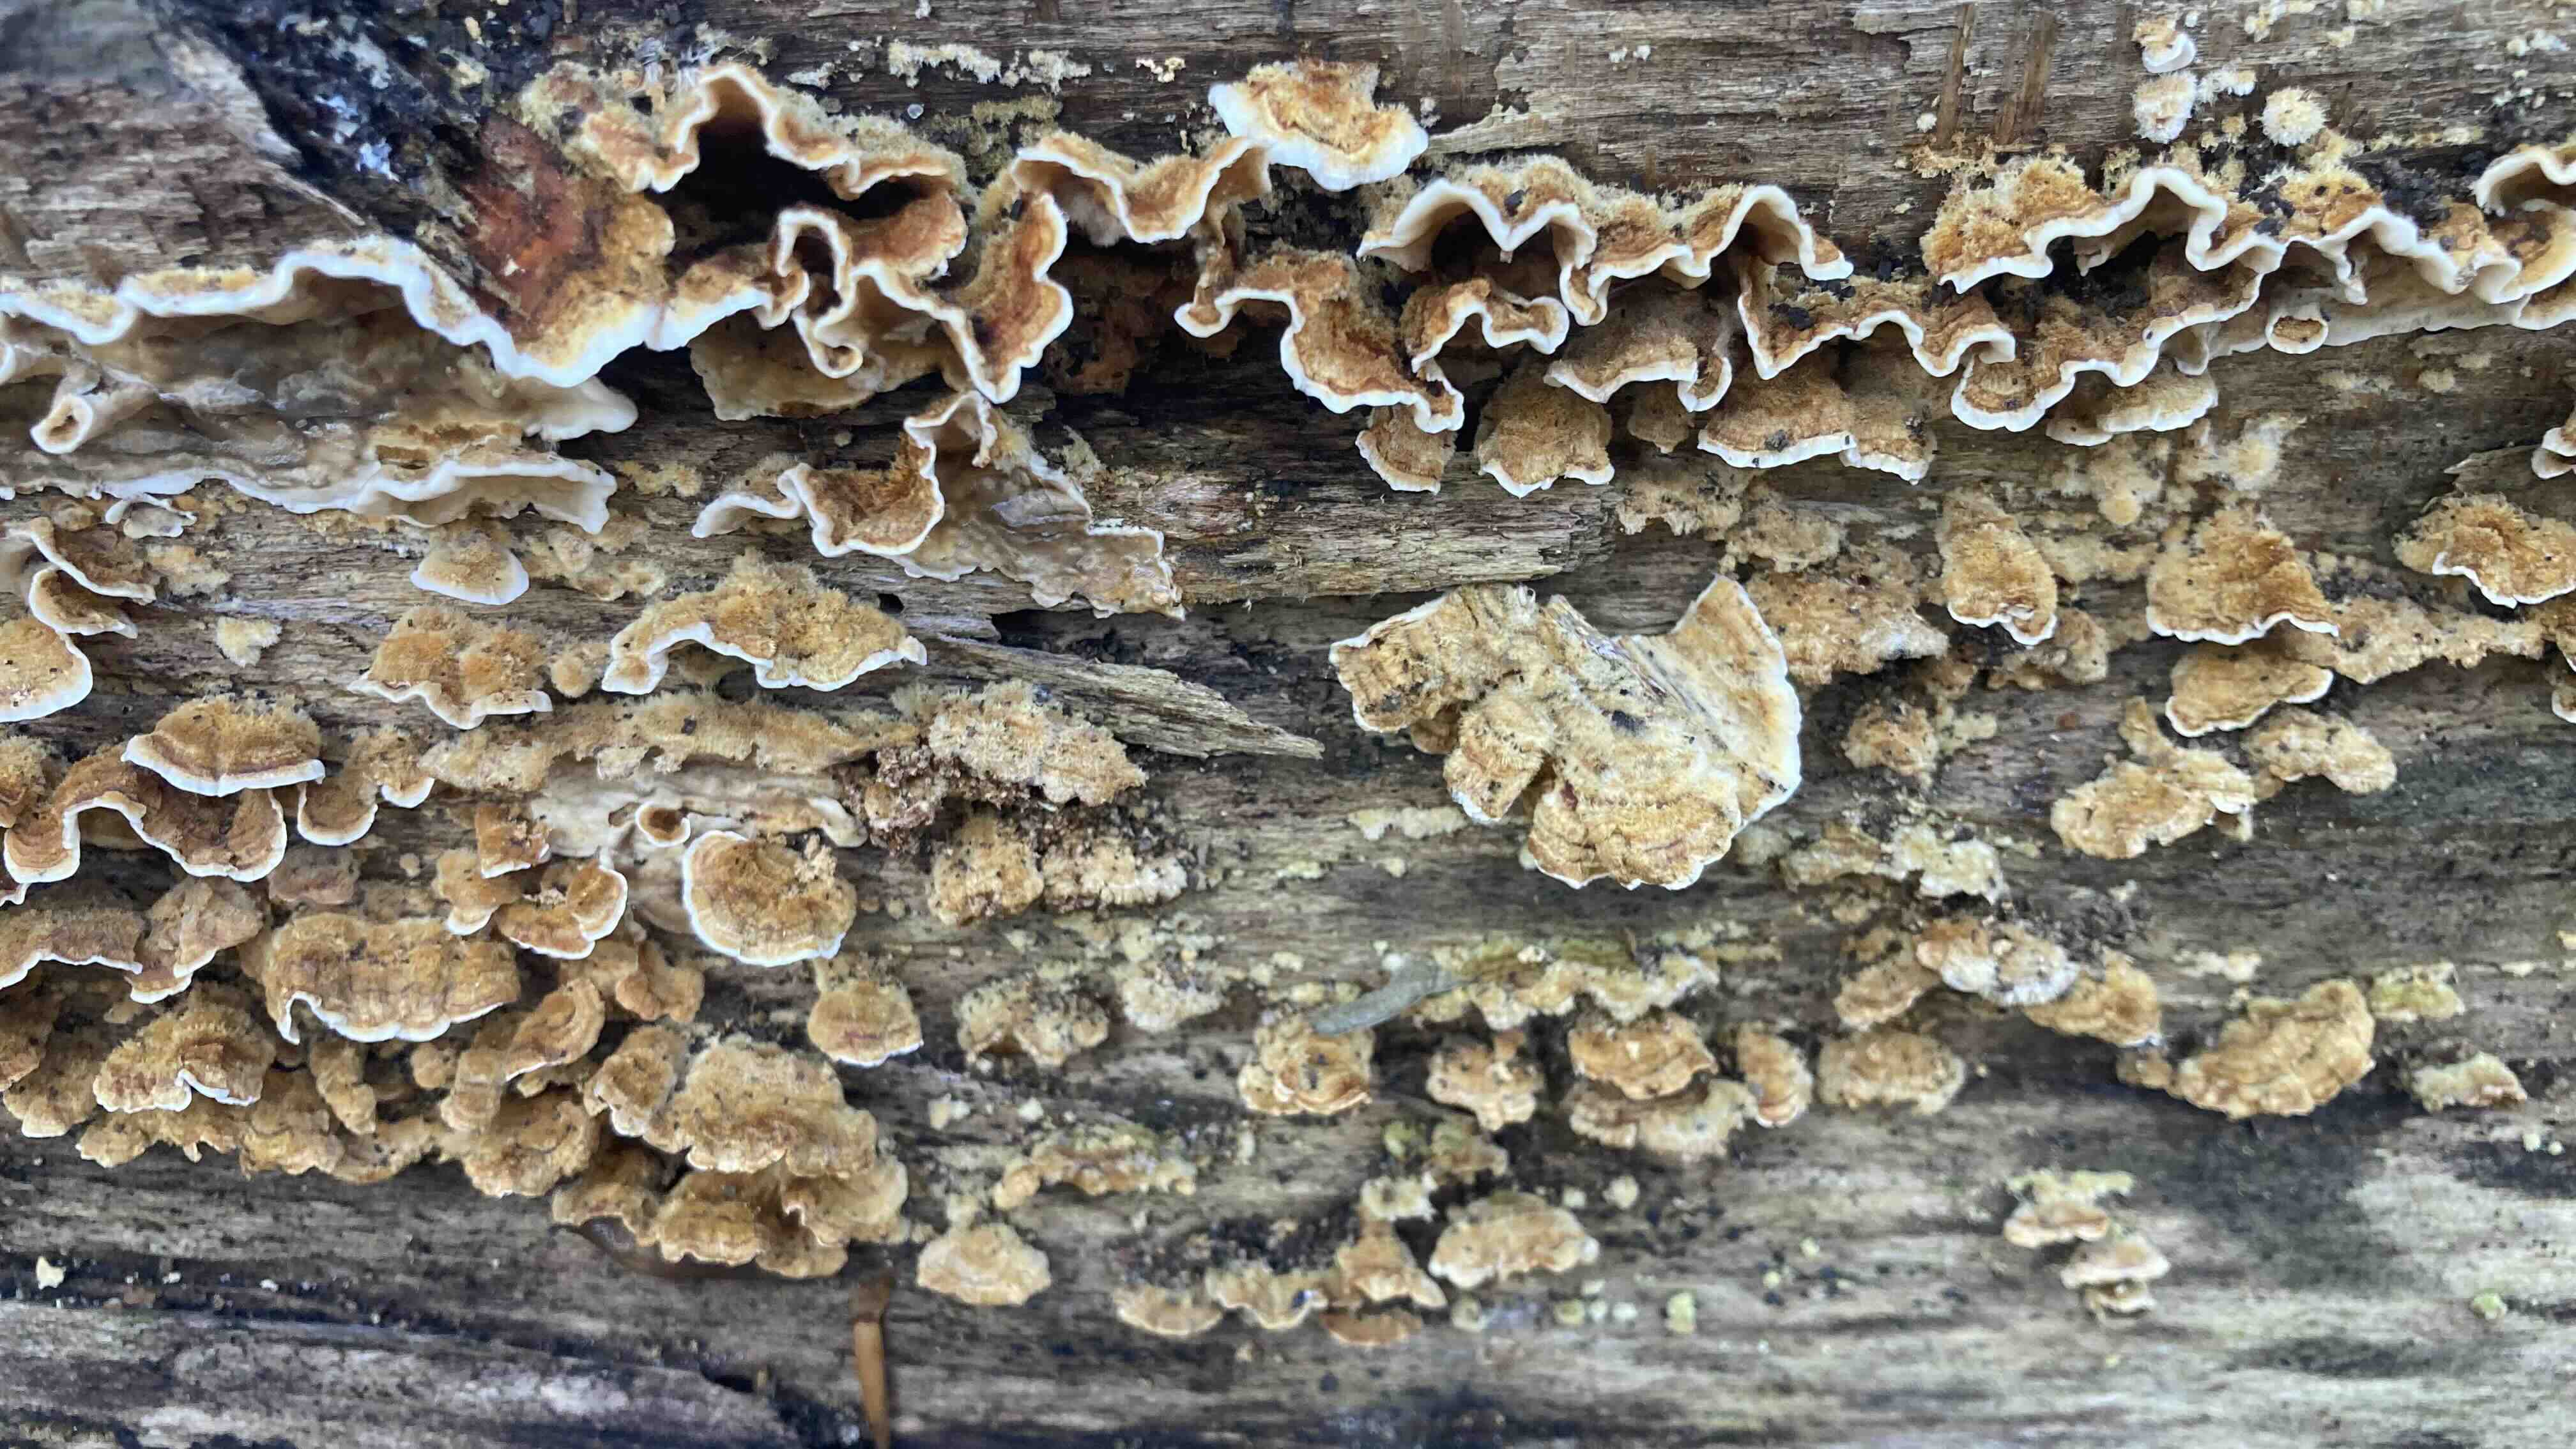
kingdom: Fungi
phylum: Basidiomycota
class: Agaricomycetes
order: Russulales
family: Stereaceae
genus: Stereum
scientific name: Stereum hirsutum
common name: håret lædersvamp
